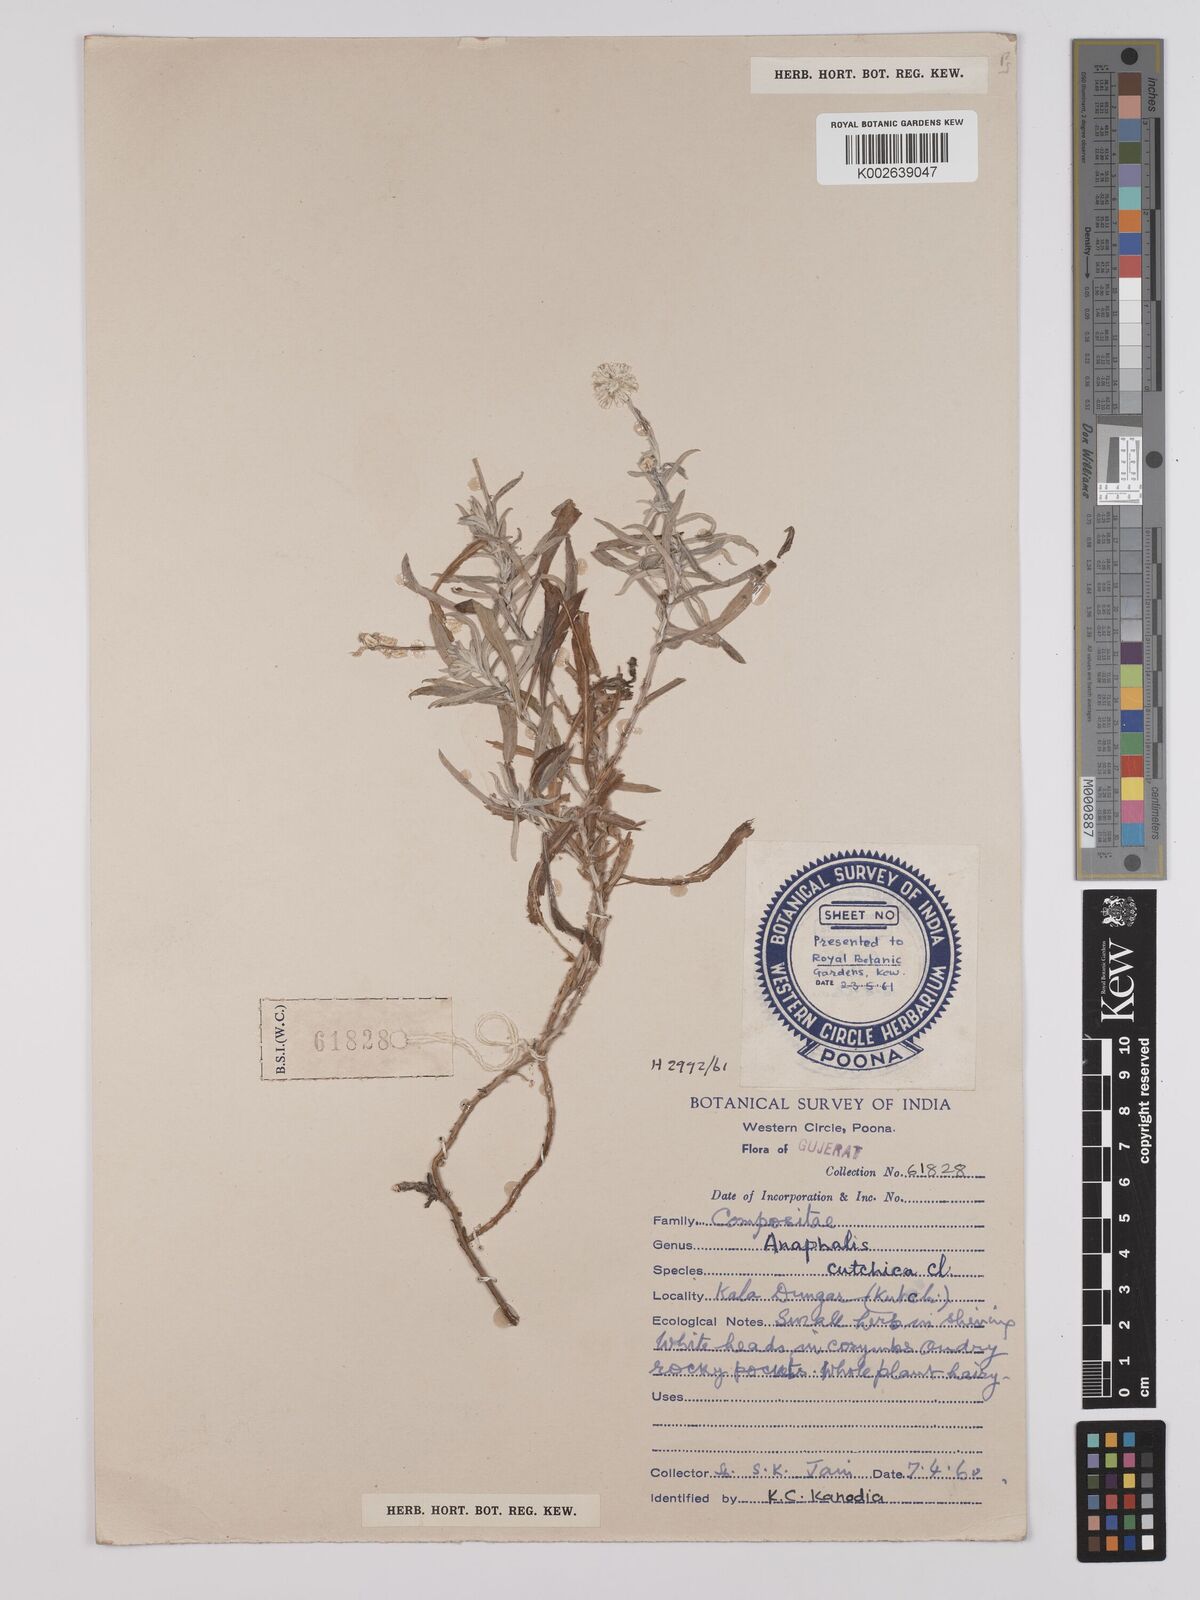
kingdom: Plantae
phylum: Tracheophyta
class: Magnoliopsida
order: Asterales
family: Asteraceae
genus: Helichrysum
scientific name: Helichrysum cutchicum
